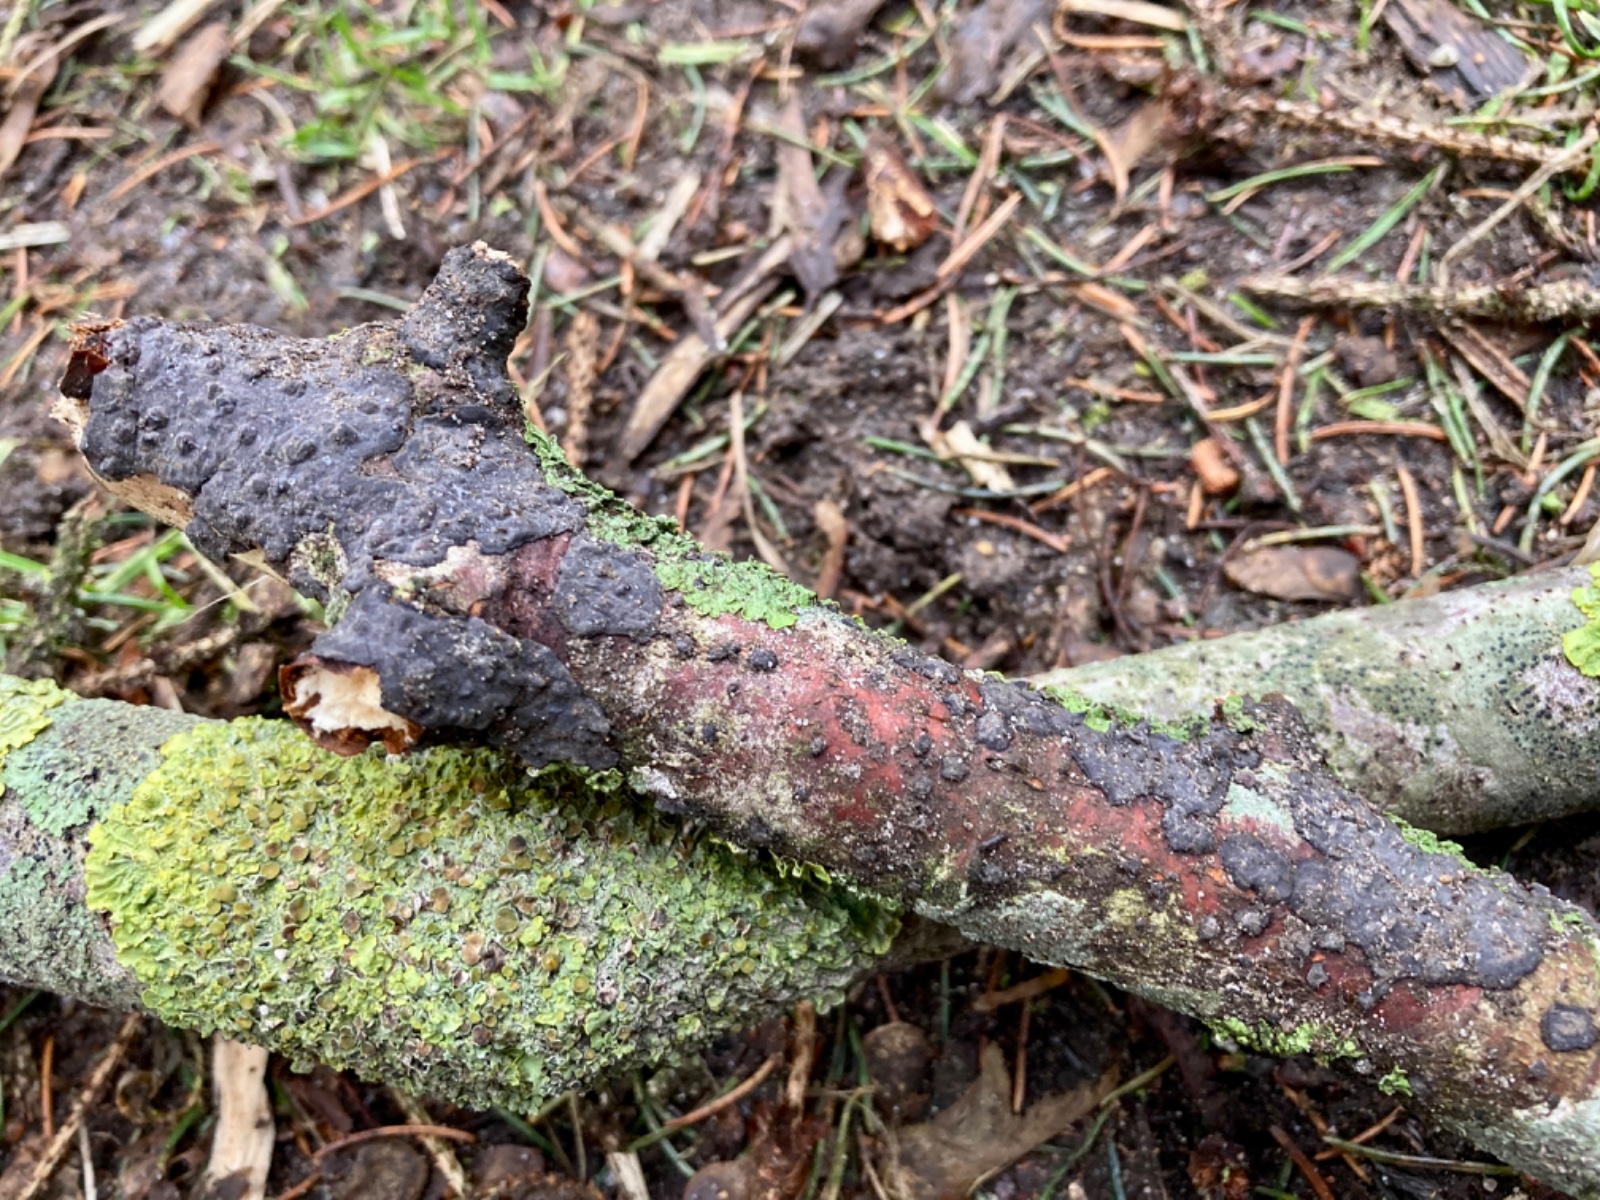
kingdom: Fungi
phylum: Basidiomycota
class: Agaricomycetes
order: Russulales
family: Peniophoraceae
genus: Peniophora
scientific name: Peniophora rufomarginata
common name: linde-voksskind
